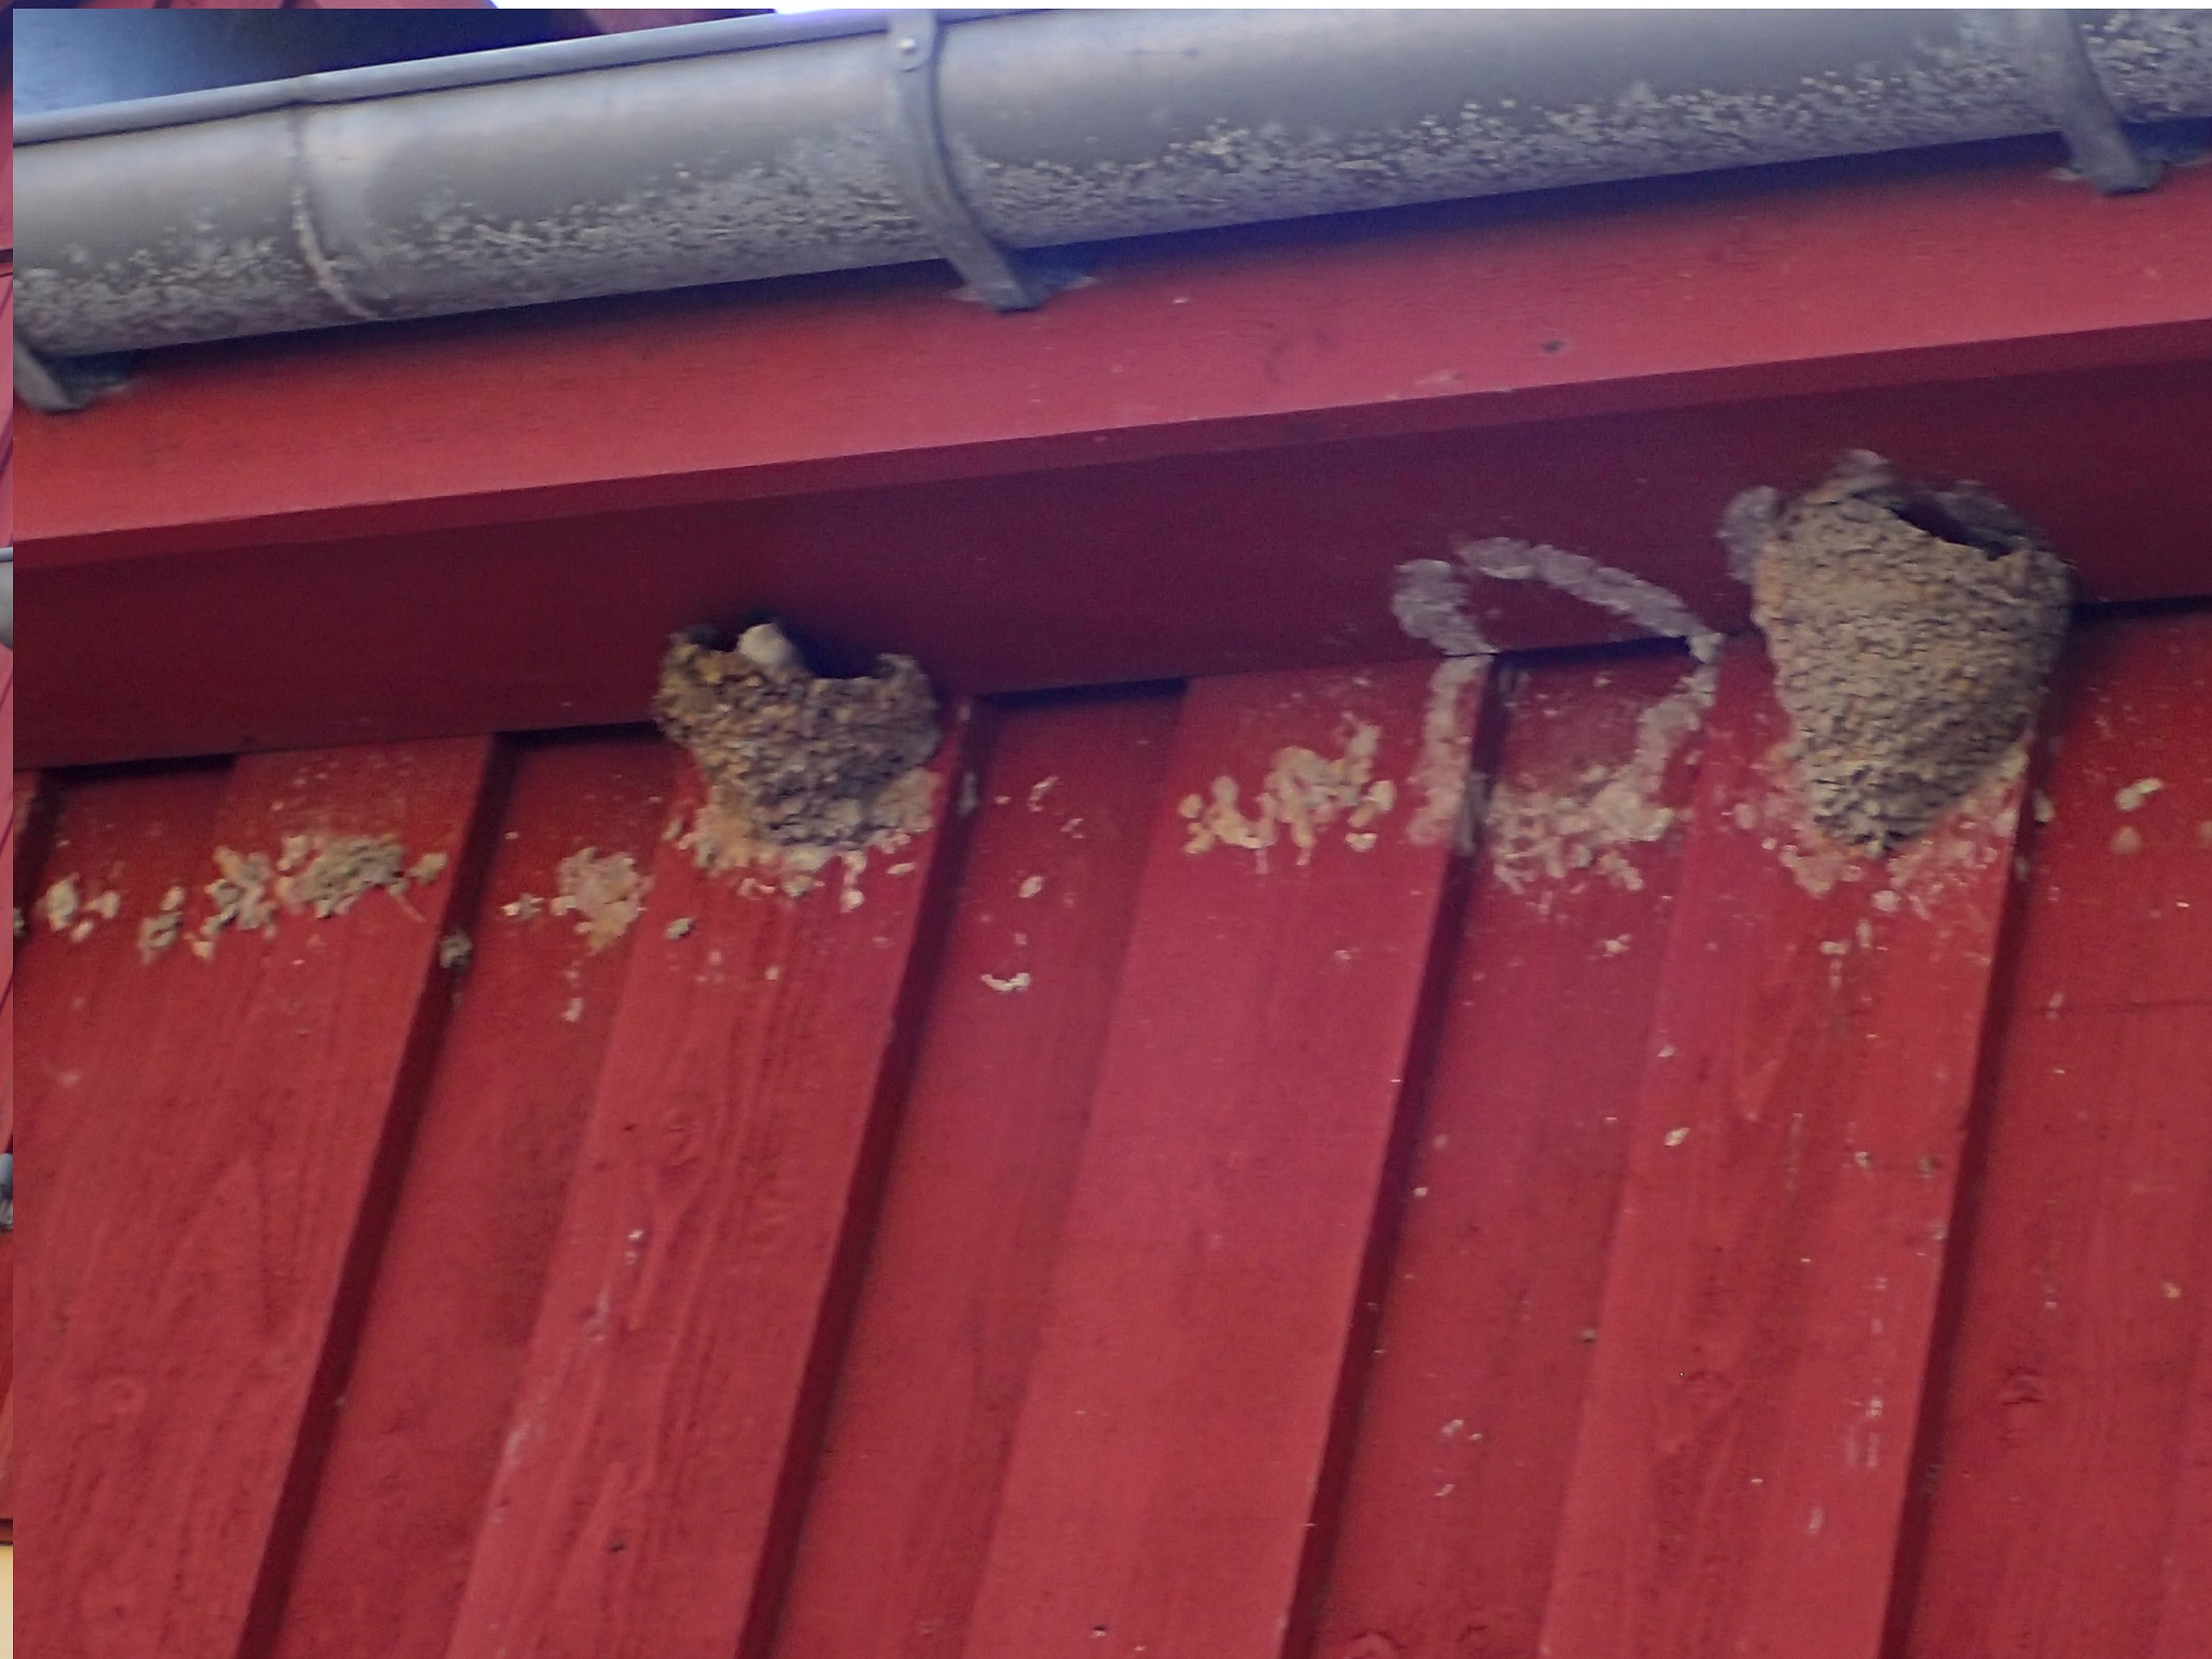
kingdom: Animalia
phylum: Chordata
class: Aves
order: Passeriformes
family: Hirundinidae
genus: Delichon
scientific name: Delichon urbicum
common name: Bysvale
